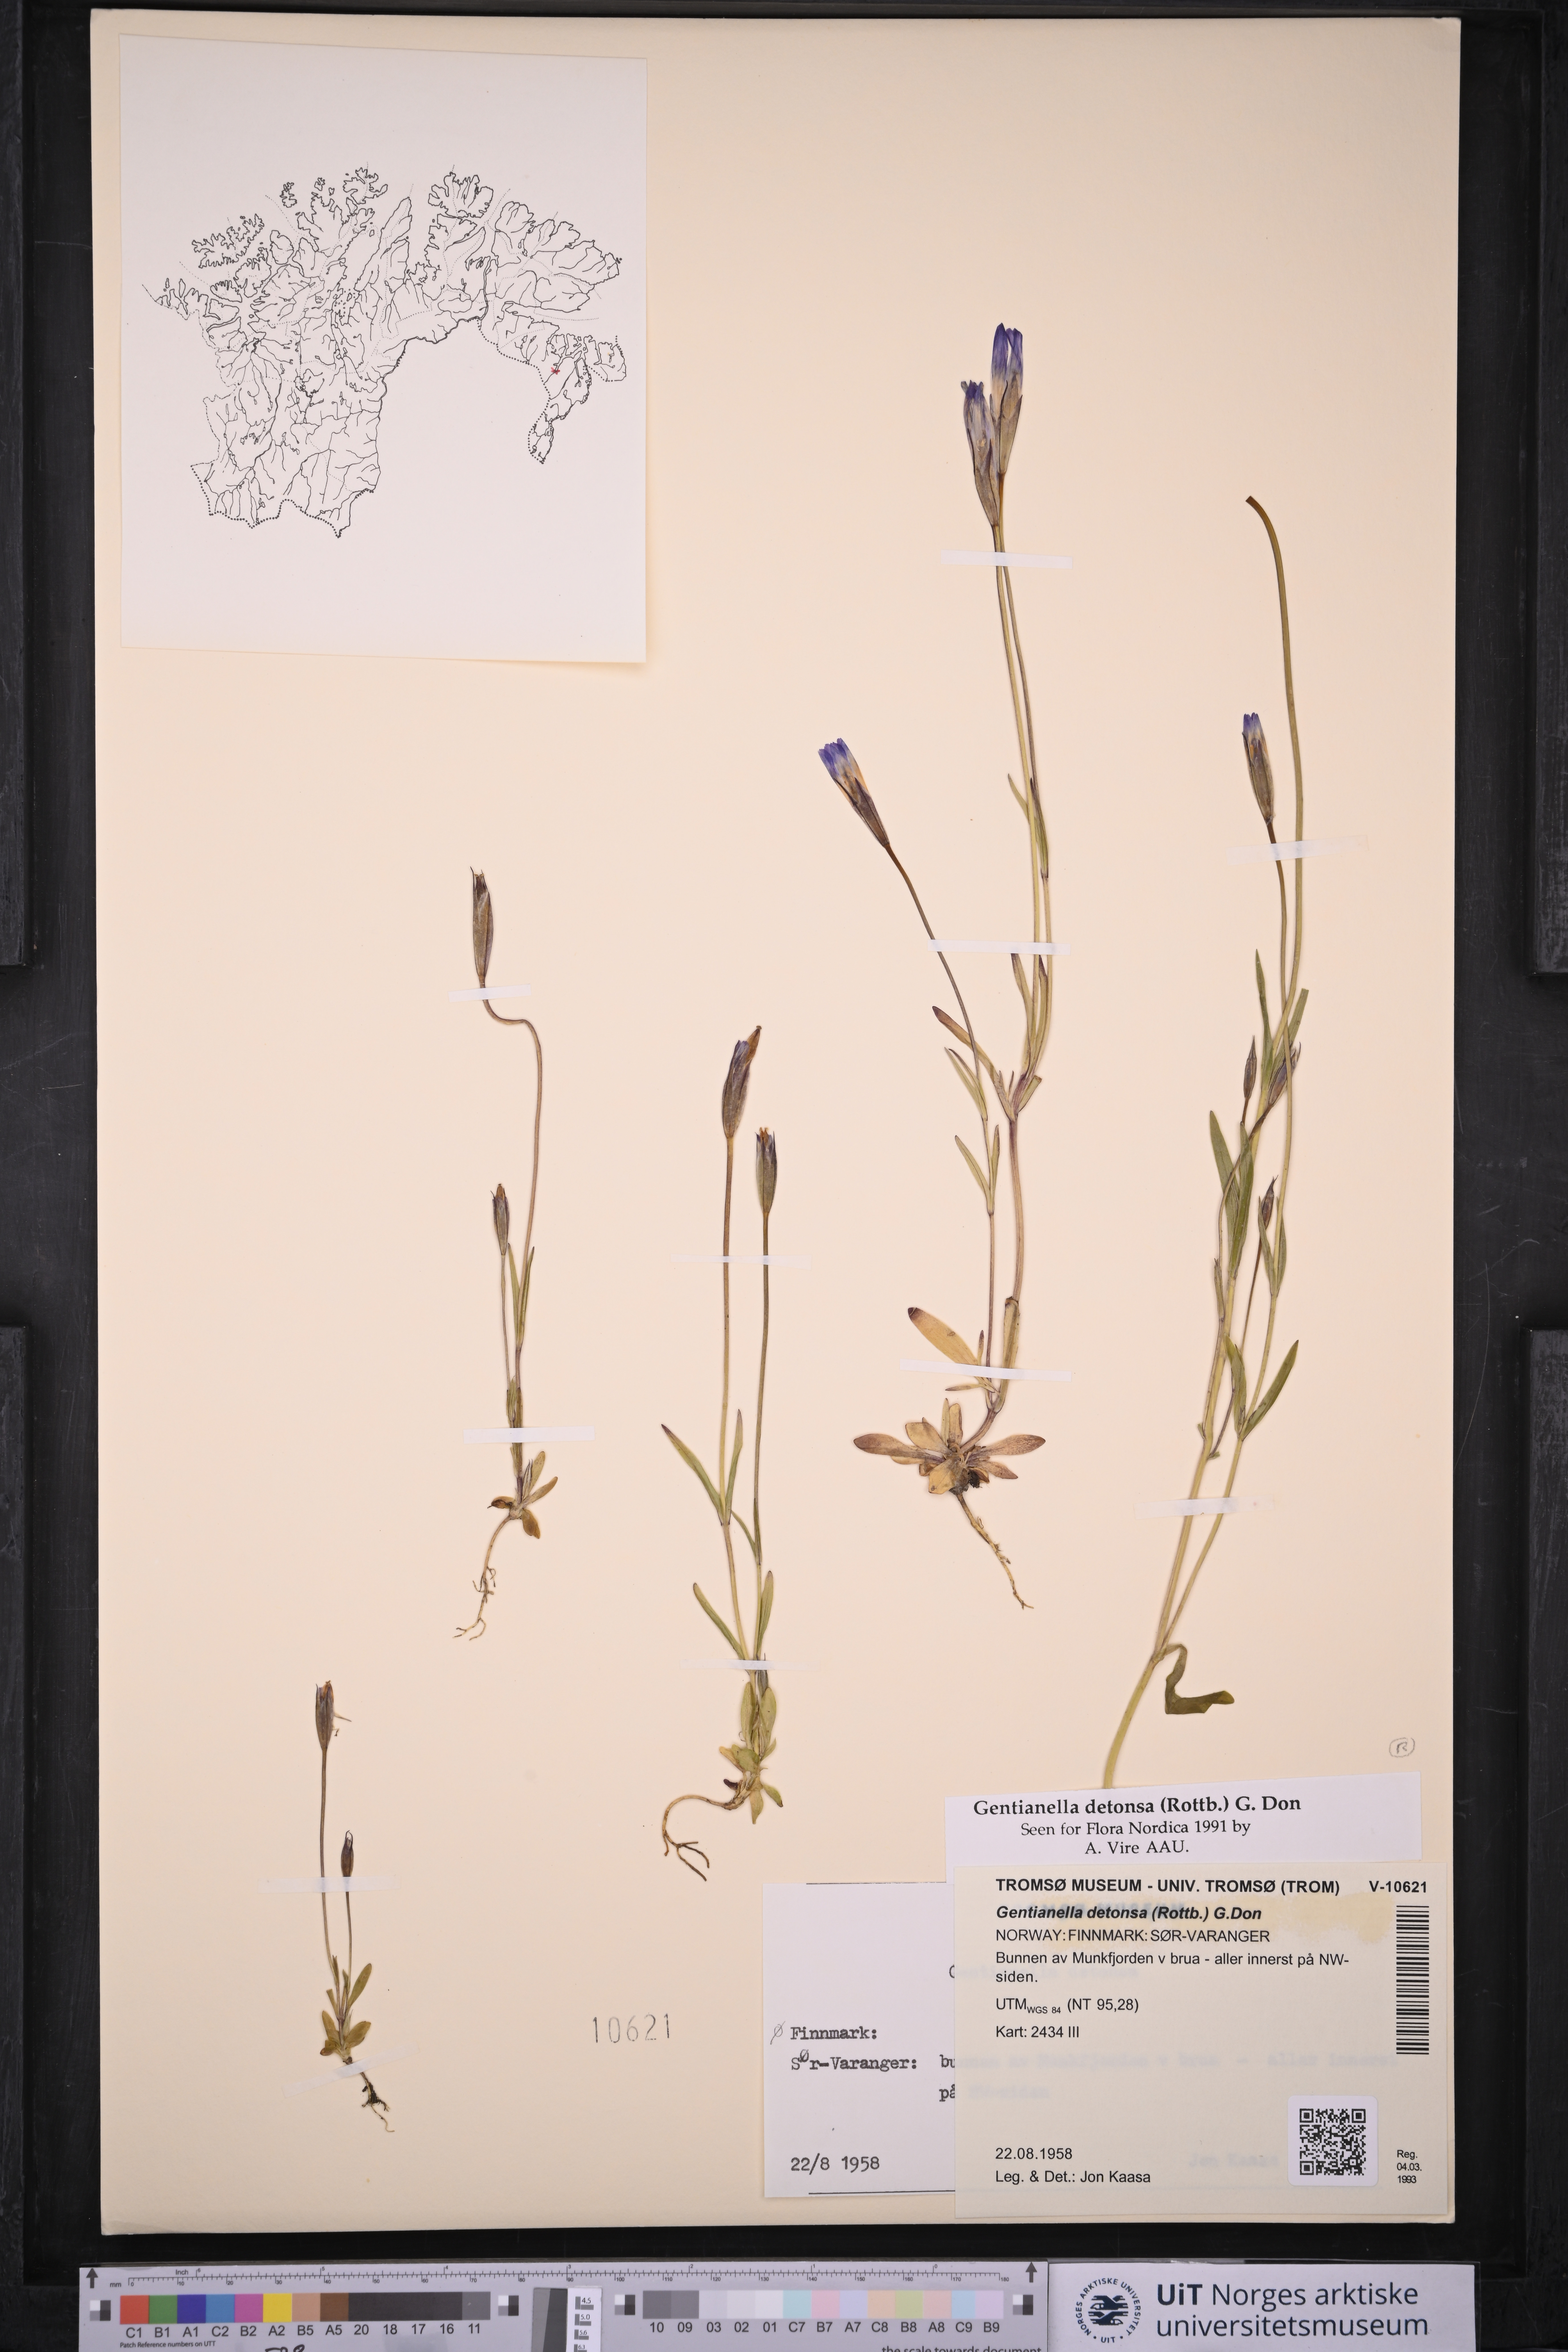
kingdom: Plantae
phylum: Tracheophyta
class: Magnoliopsida
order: Gentianales
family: Gentianaceae
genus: Gentianopsis
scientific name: Gentianopsis detonsa
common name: Fringed-gentian
